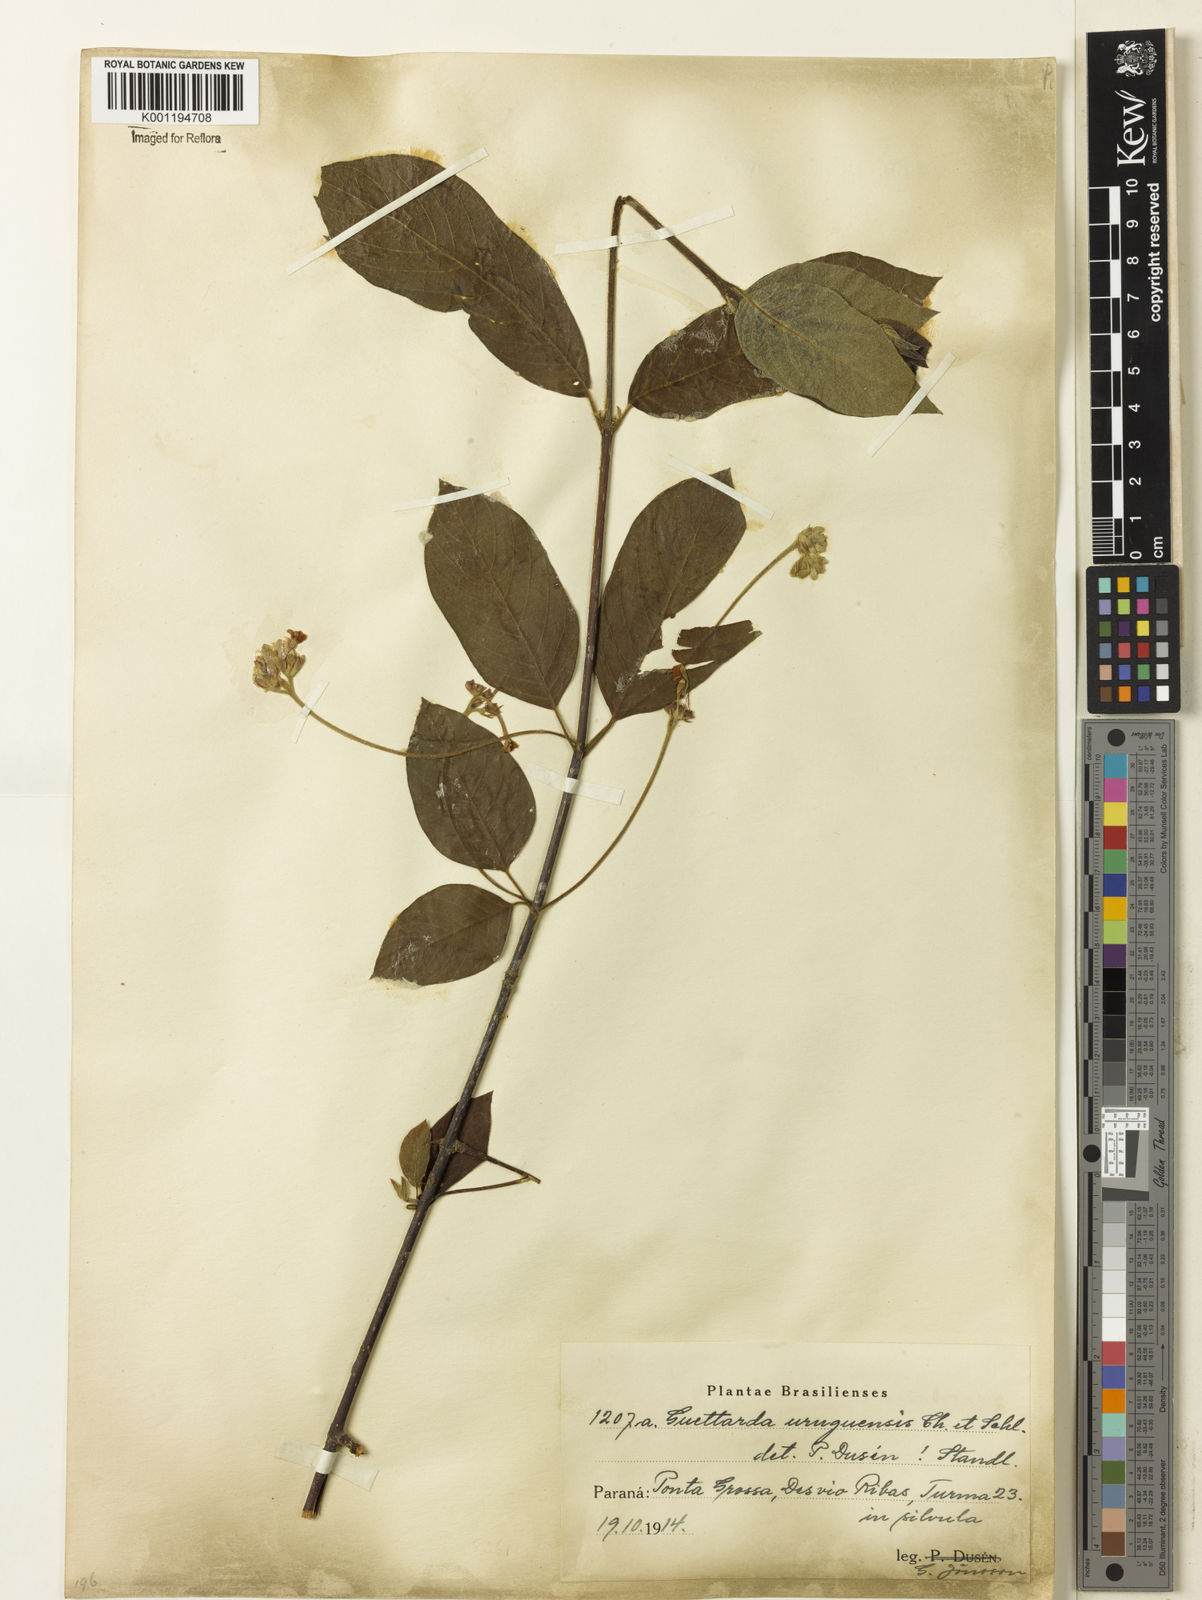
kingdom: Plantae
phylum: Tracheophyta
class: Magnoliopsida
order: Gentianales
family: Rubiaceae
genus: Guettarda
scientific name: Guettarda uruguensis
